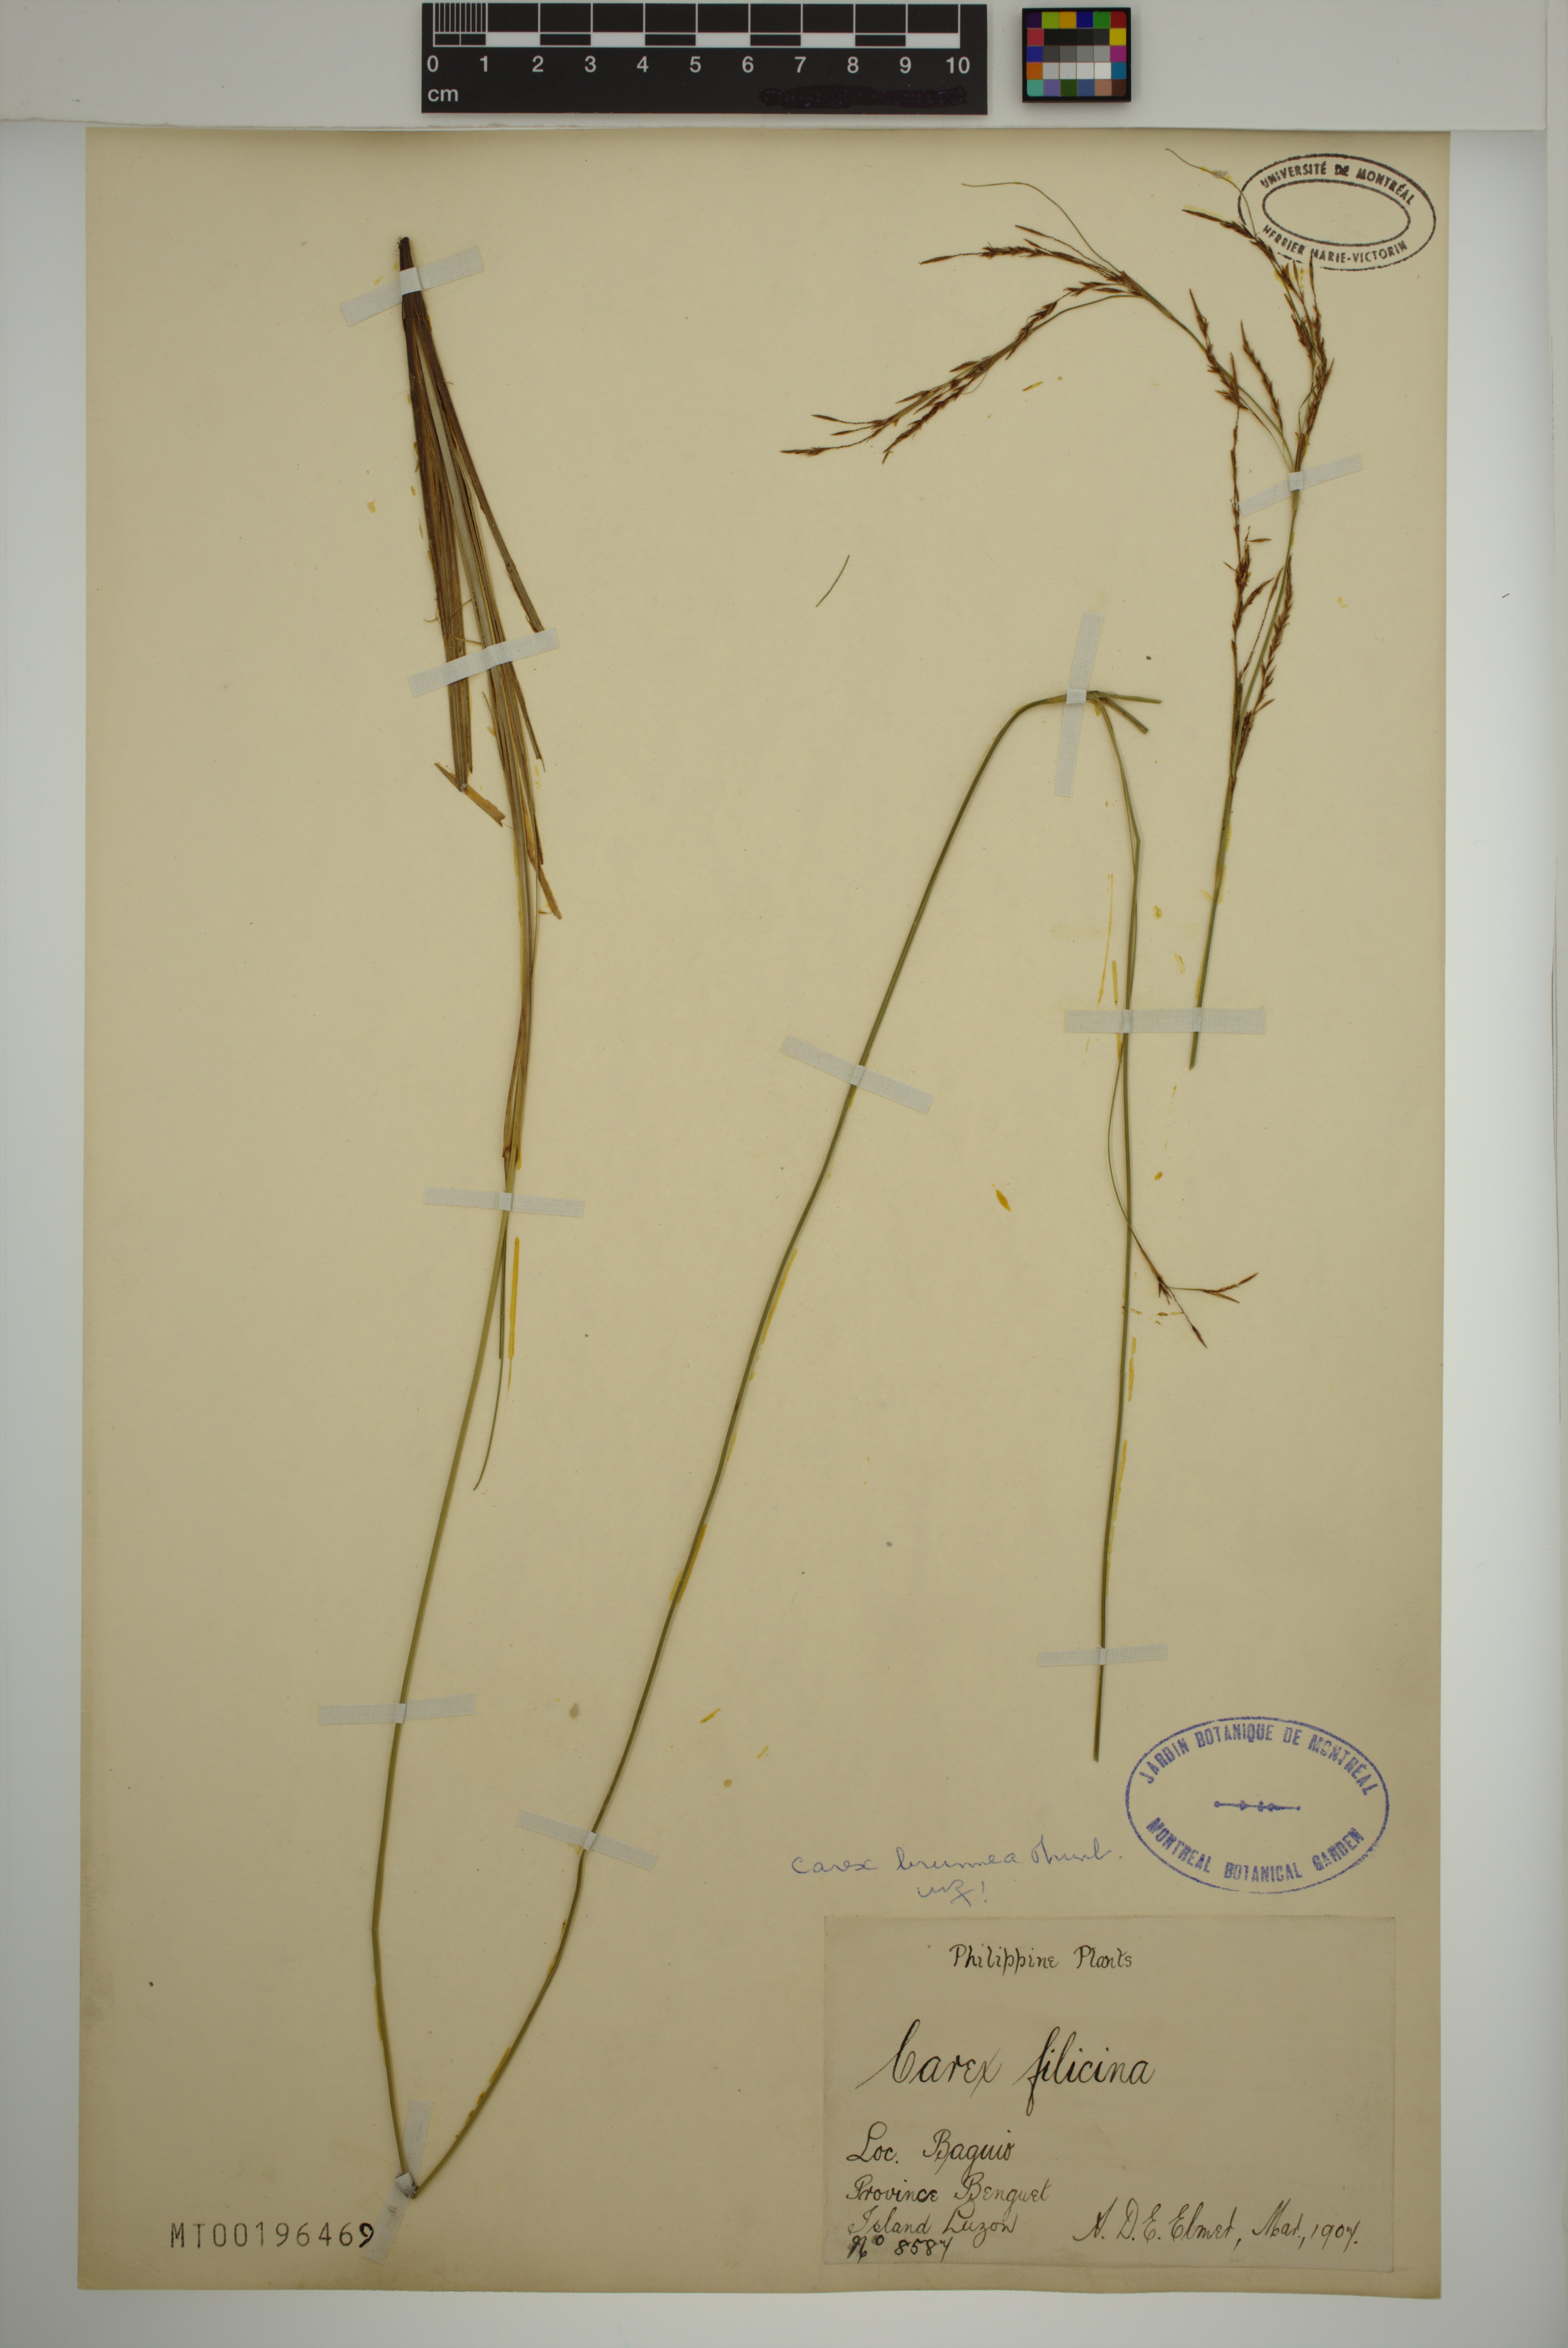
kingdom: Plantae
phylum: Tracheophyta
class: Liliopsida
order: Poales
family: Cyperaceae
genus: Carex
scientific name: Carex brunnea
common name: Greater brown sedge
